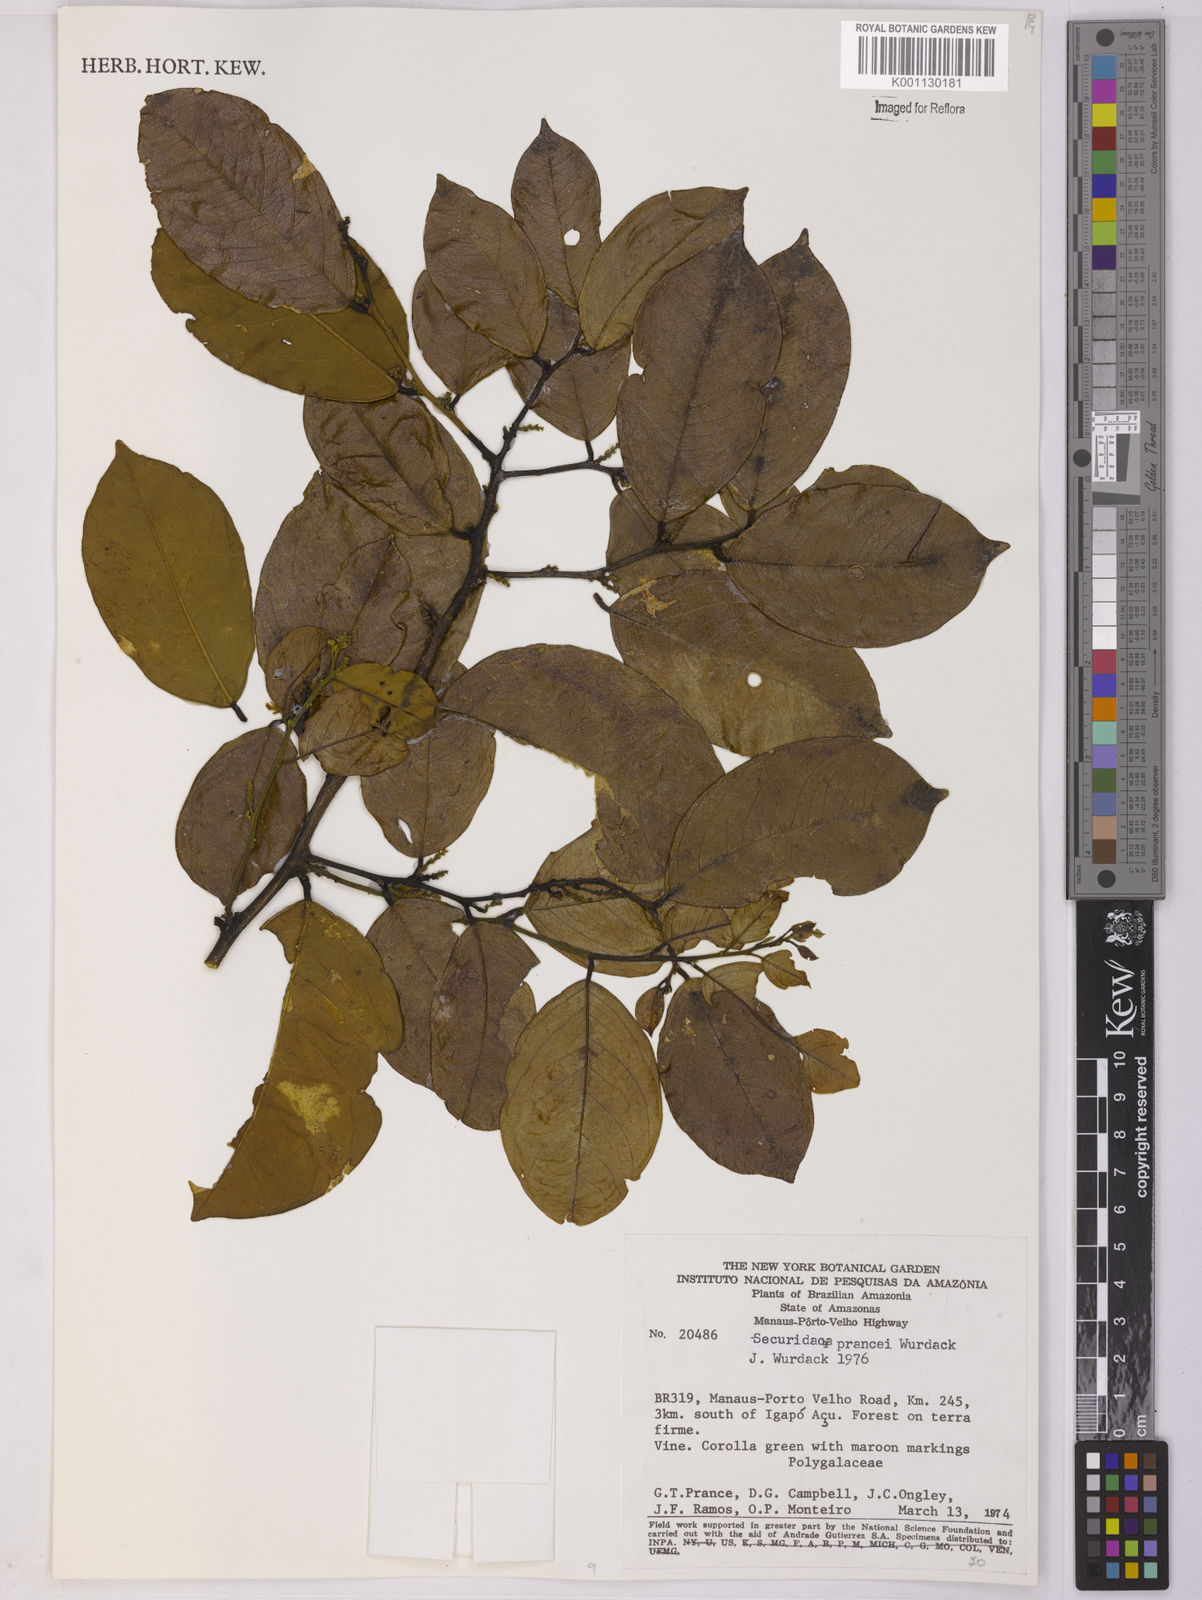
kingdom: Plantae
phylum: Tracheophyta
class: Magnoliopsida
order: Fabales
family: Polygalaceae
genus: Securidaca
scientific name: Securidaca prancei
